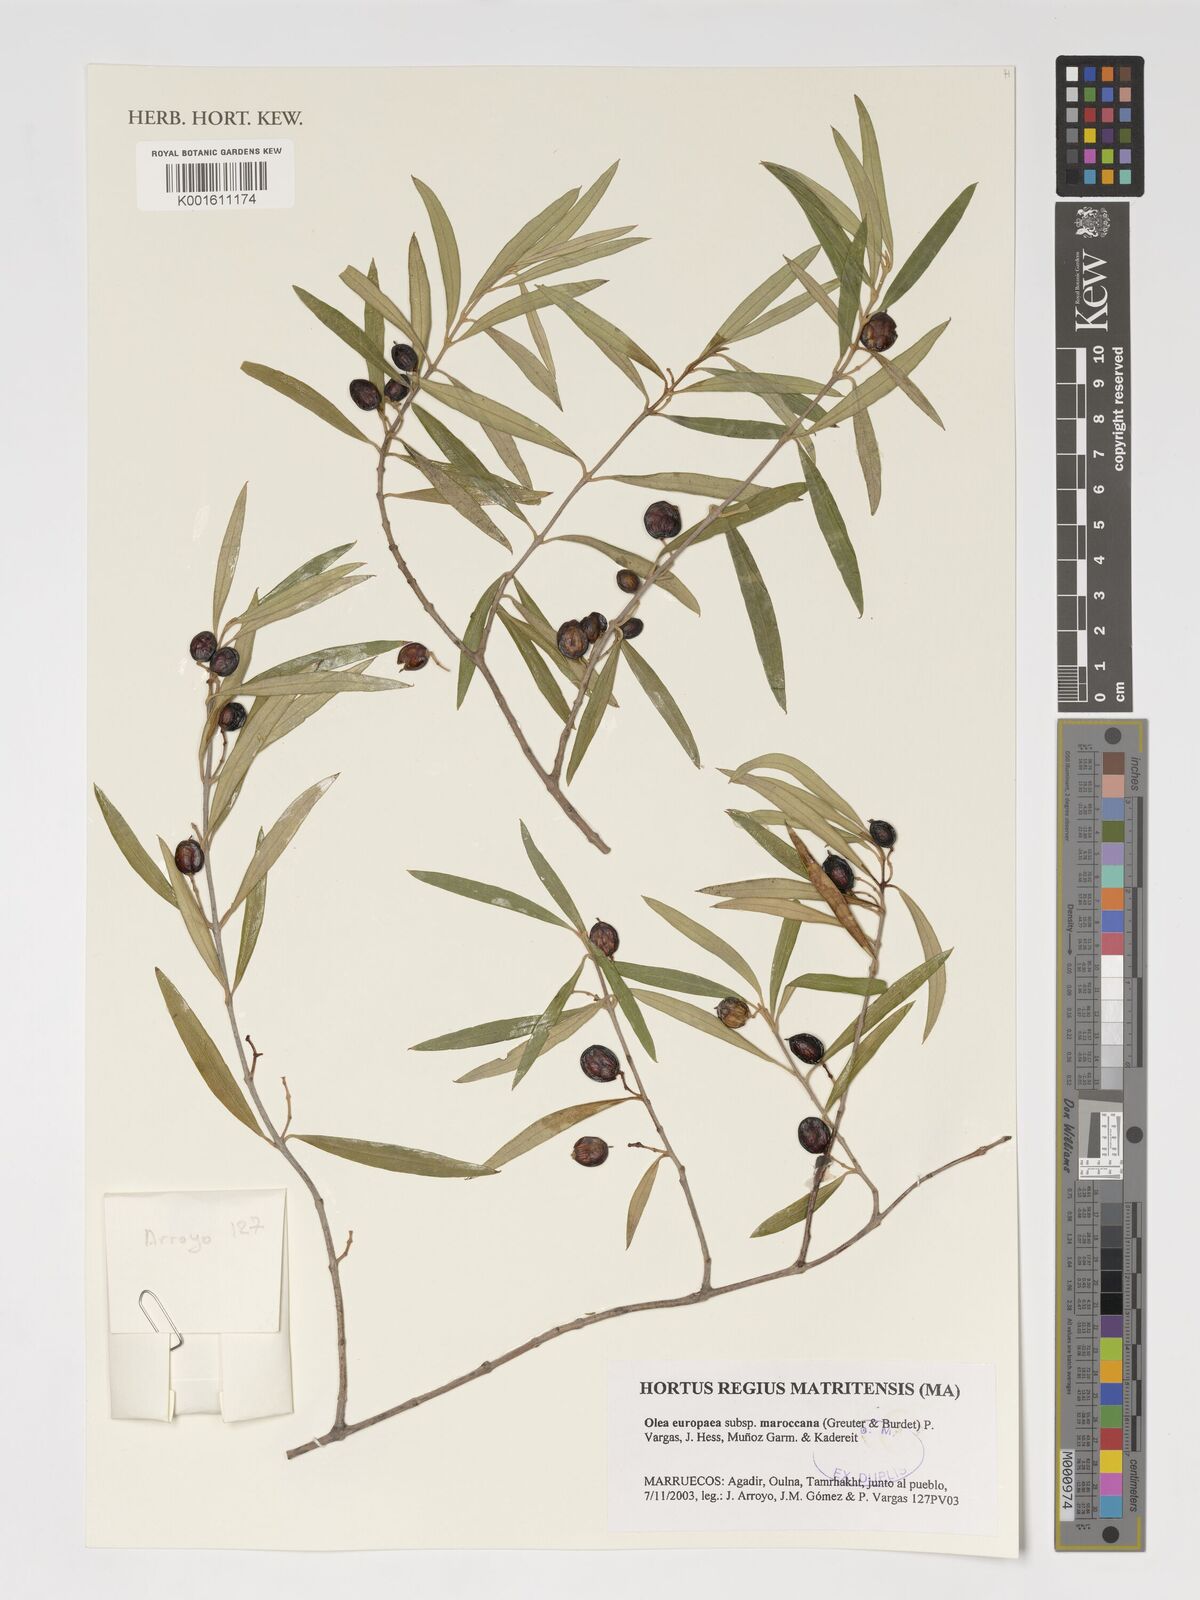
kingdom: Plantae
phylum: Tracheophyta
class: Magnoliopsida
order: Lamiales
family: Oleaceae
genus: Olea
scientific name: Olea europaea
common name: Olive
